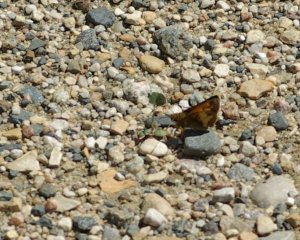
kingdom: Animalia
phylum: Arthropoda
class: Insecta
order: Lepidoptera
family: Hesperiidae
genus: Lon
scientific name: Lon hobomok
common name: Hobomok Skipper
